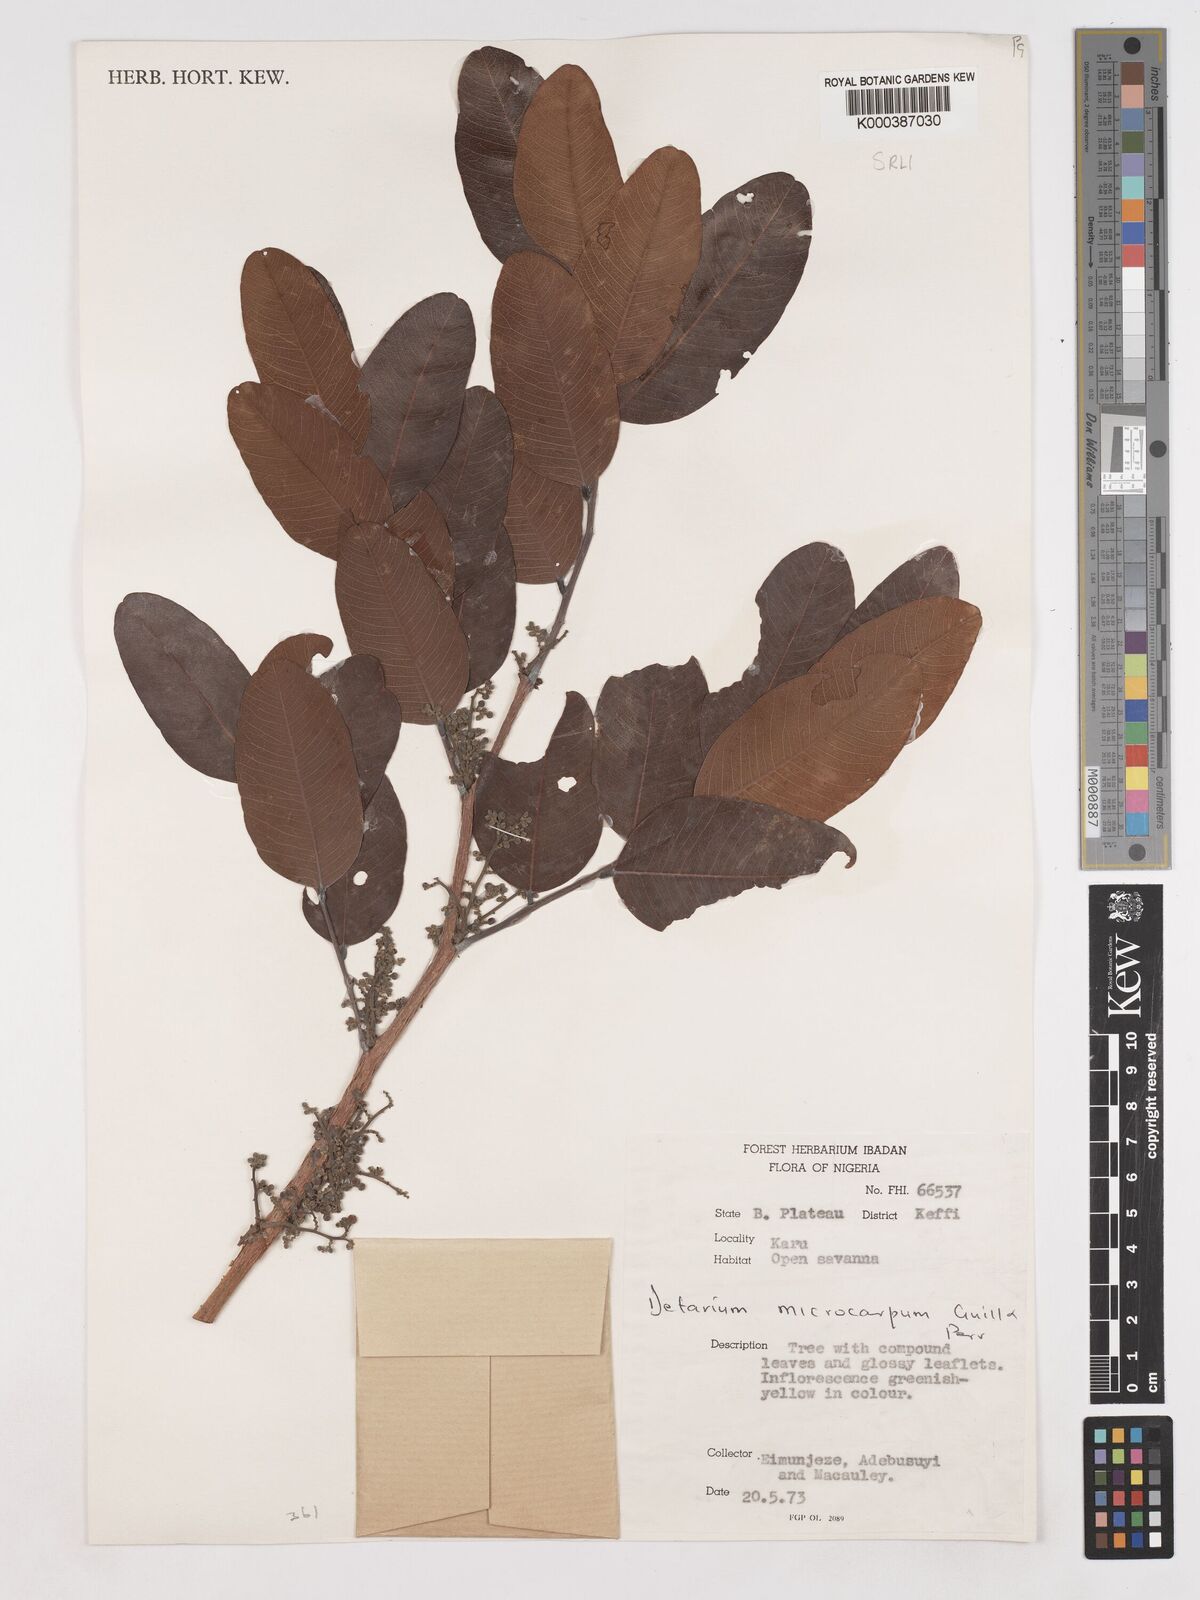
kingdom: Plantae
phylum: Tracheophyta
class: Magnoliopsida
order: Fabales
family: Fabaceae
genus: Detarium
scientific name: Detarium microcarpum
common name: Sweet dattock
